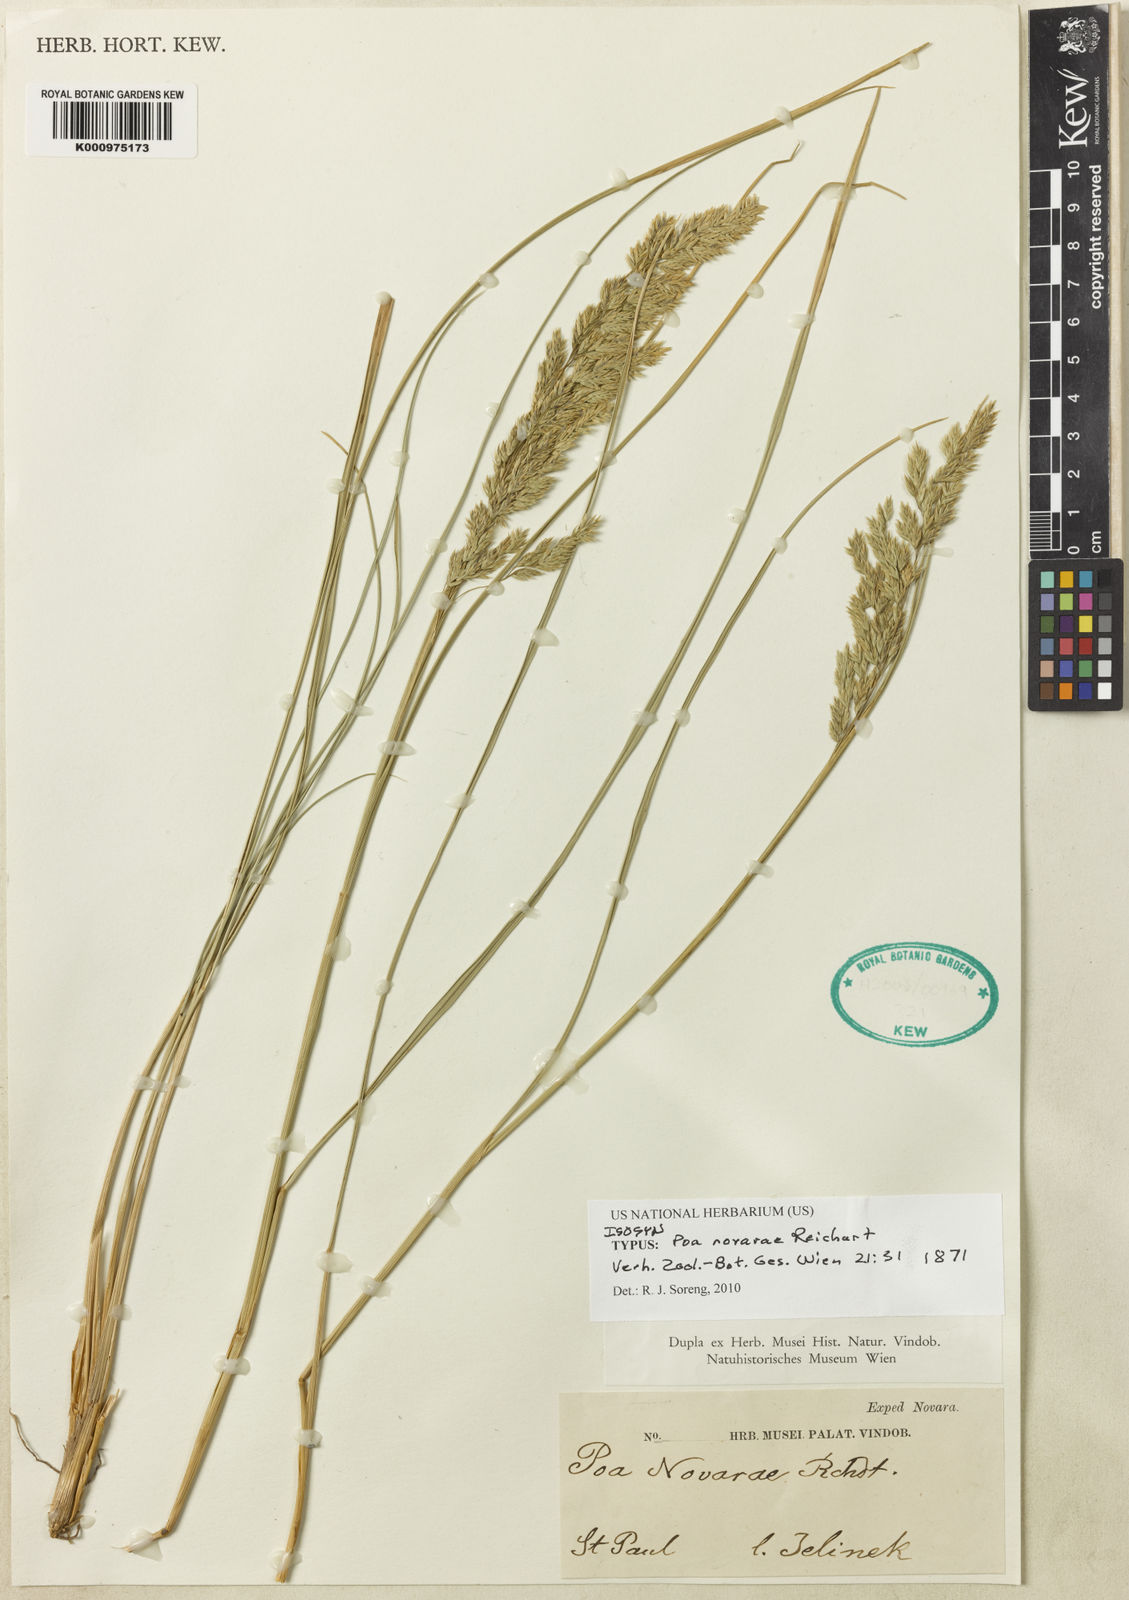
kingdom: Plantae
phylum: Tracheophyta
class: Liliopsida
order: Poales
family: Poaceae
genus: Poa
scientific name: Poa novarae
